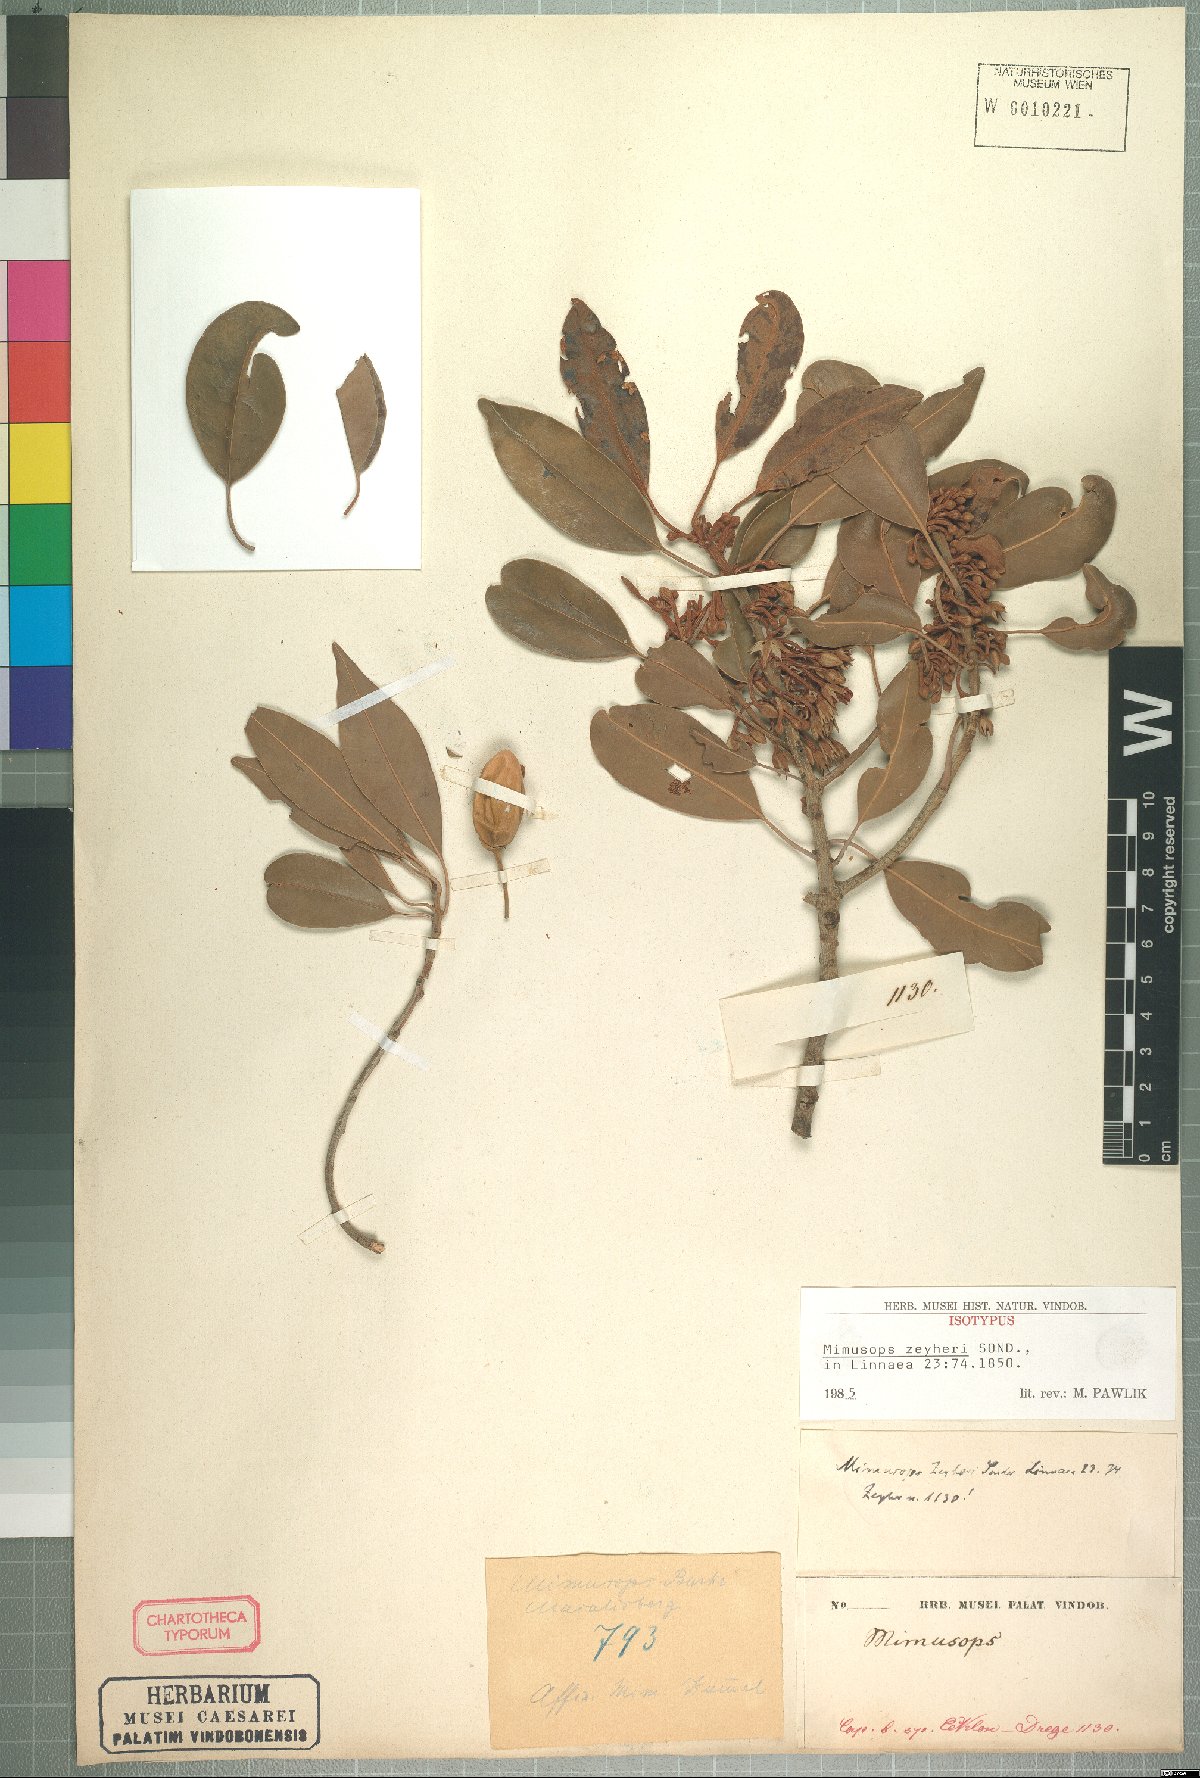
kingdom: Plantae
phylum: Tracheophyta
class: Magnoliopsida
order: Ericales
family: Sapotaceae
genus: Mimusops
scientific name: Mimusops zeyheri
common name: Transvaal red milkwood
